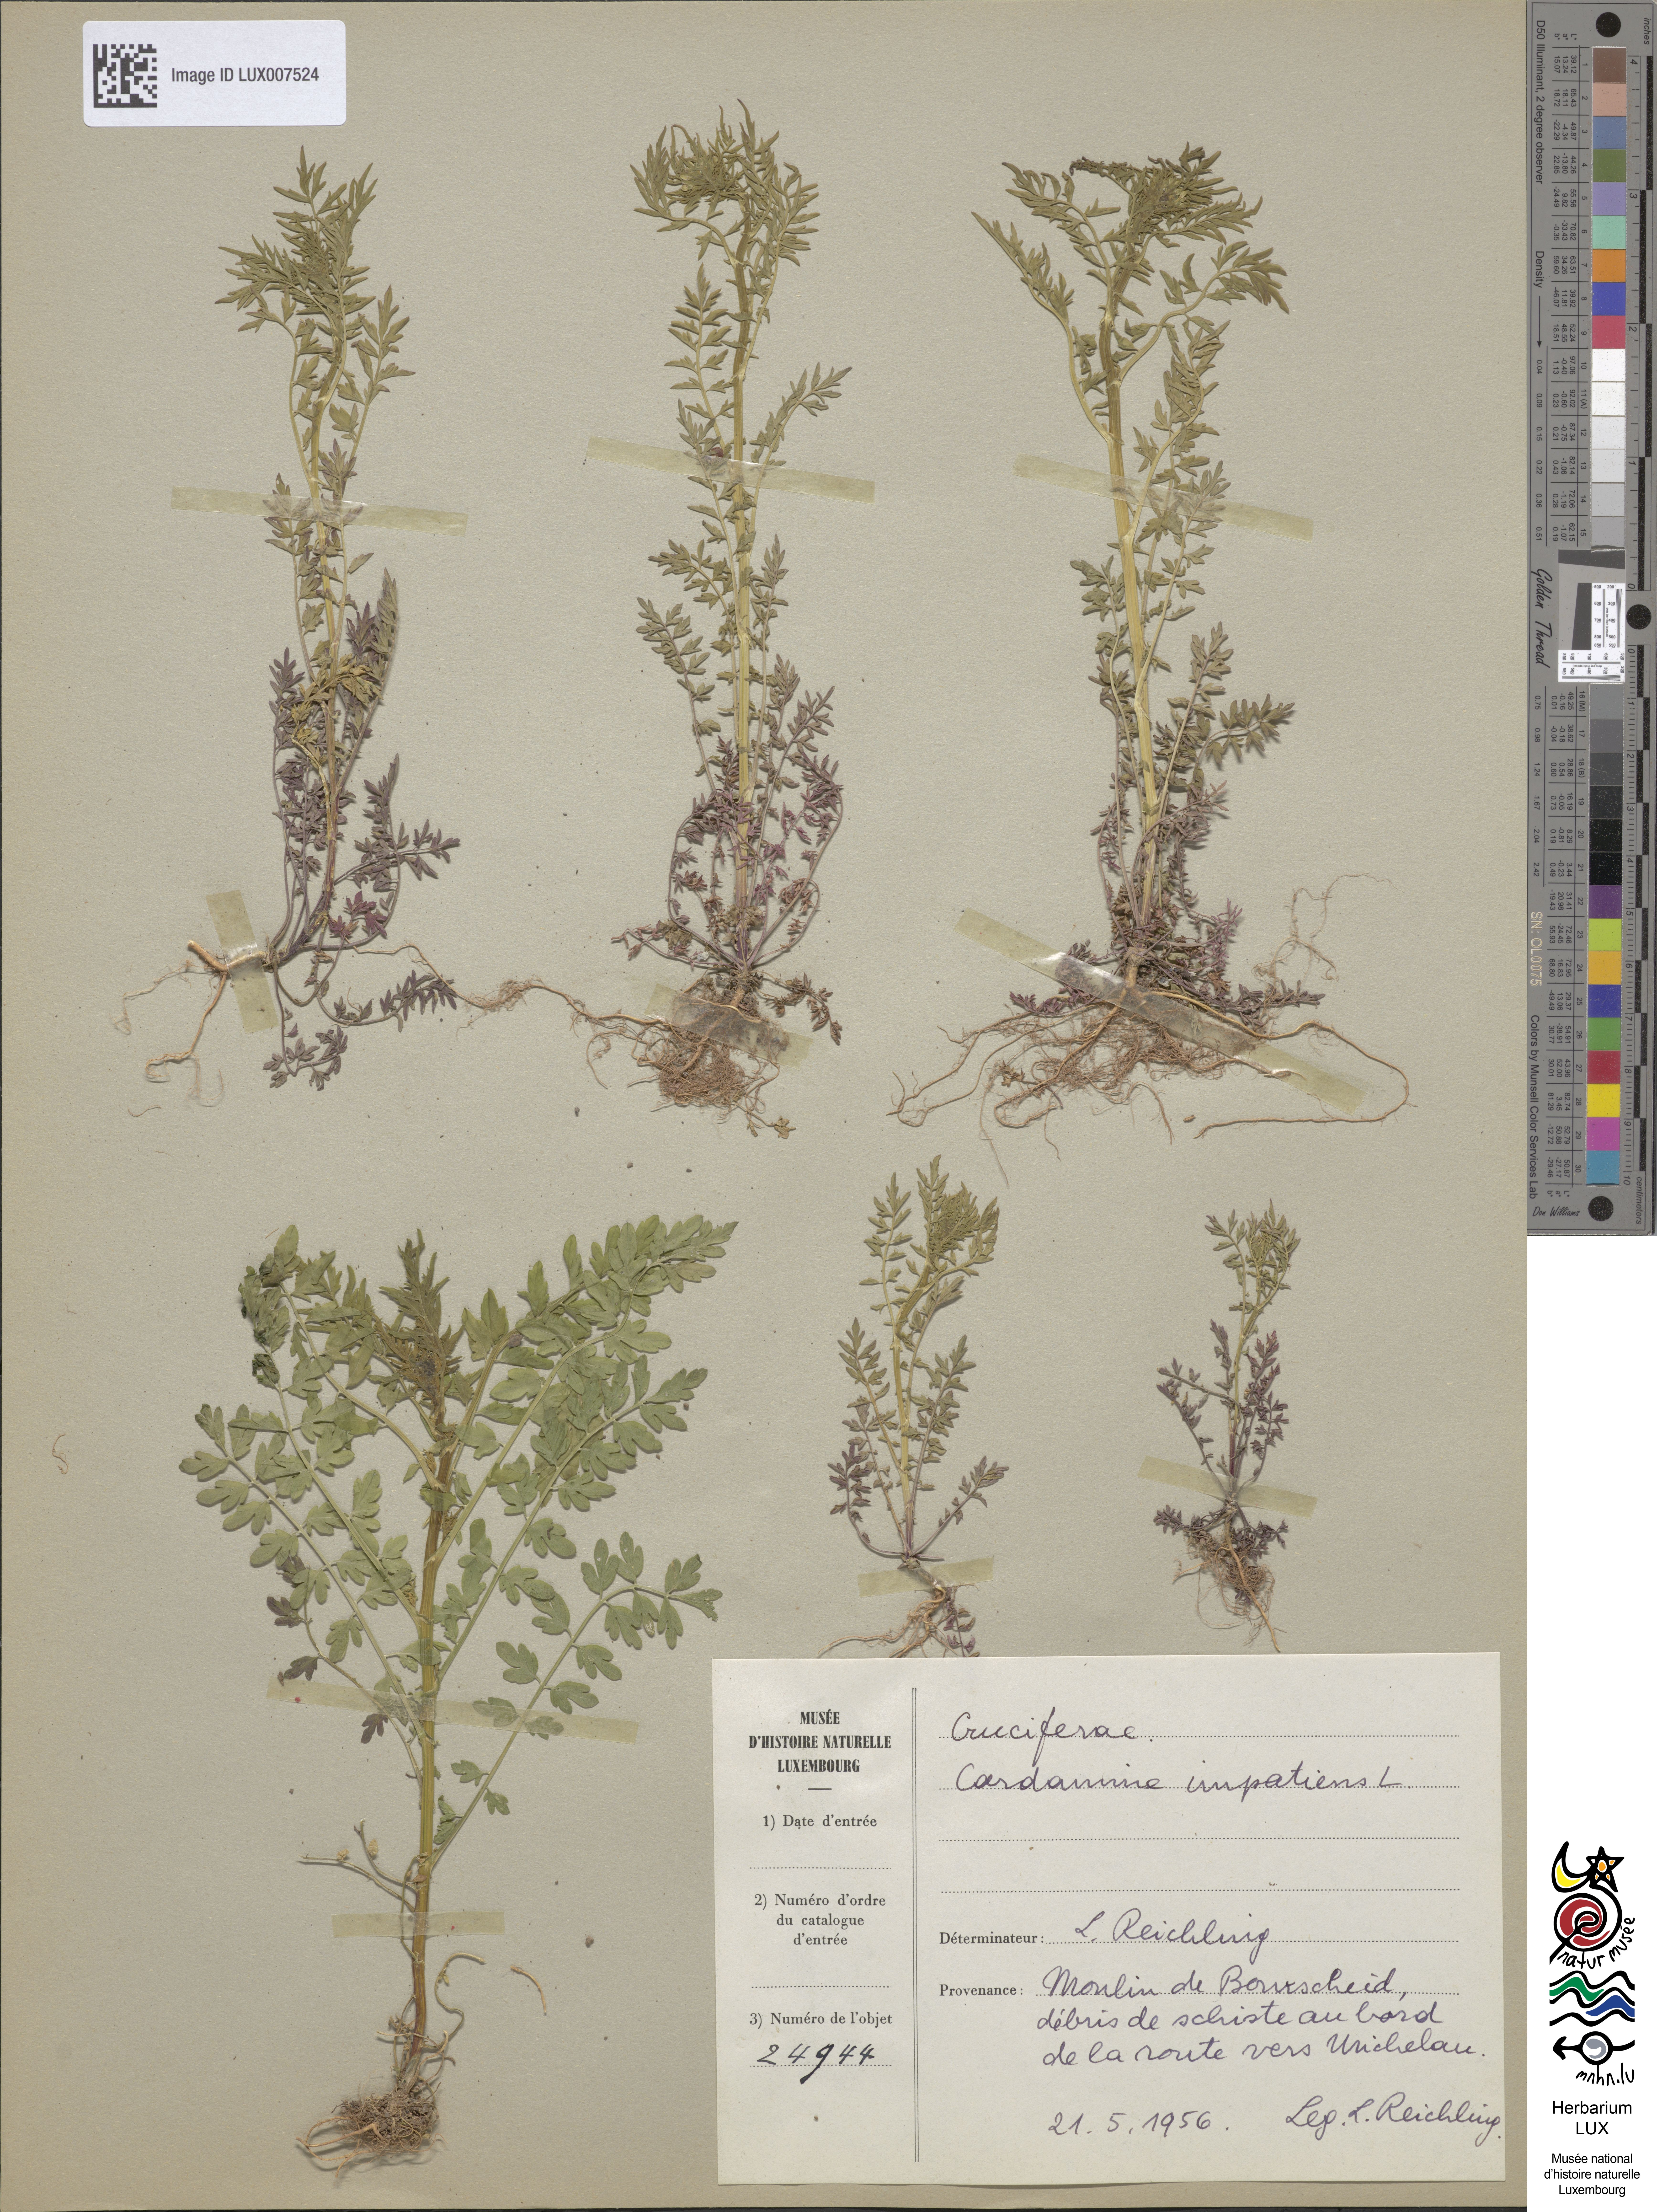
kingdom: Plantae
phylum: Tracheophyta
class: Magnoliopsida
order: Brassicales
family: Brassicaceae
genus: Cardamine
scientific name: Cardamine impatiens
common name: Narrow-leaved bitter-cress
